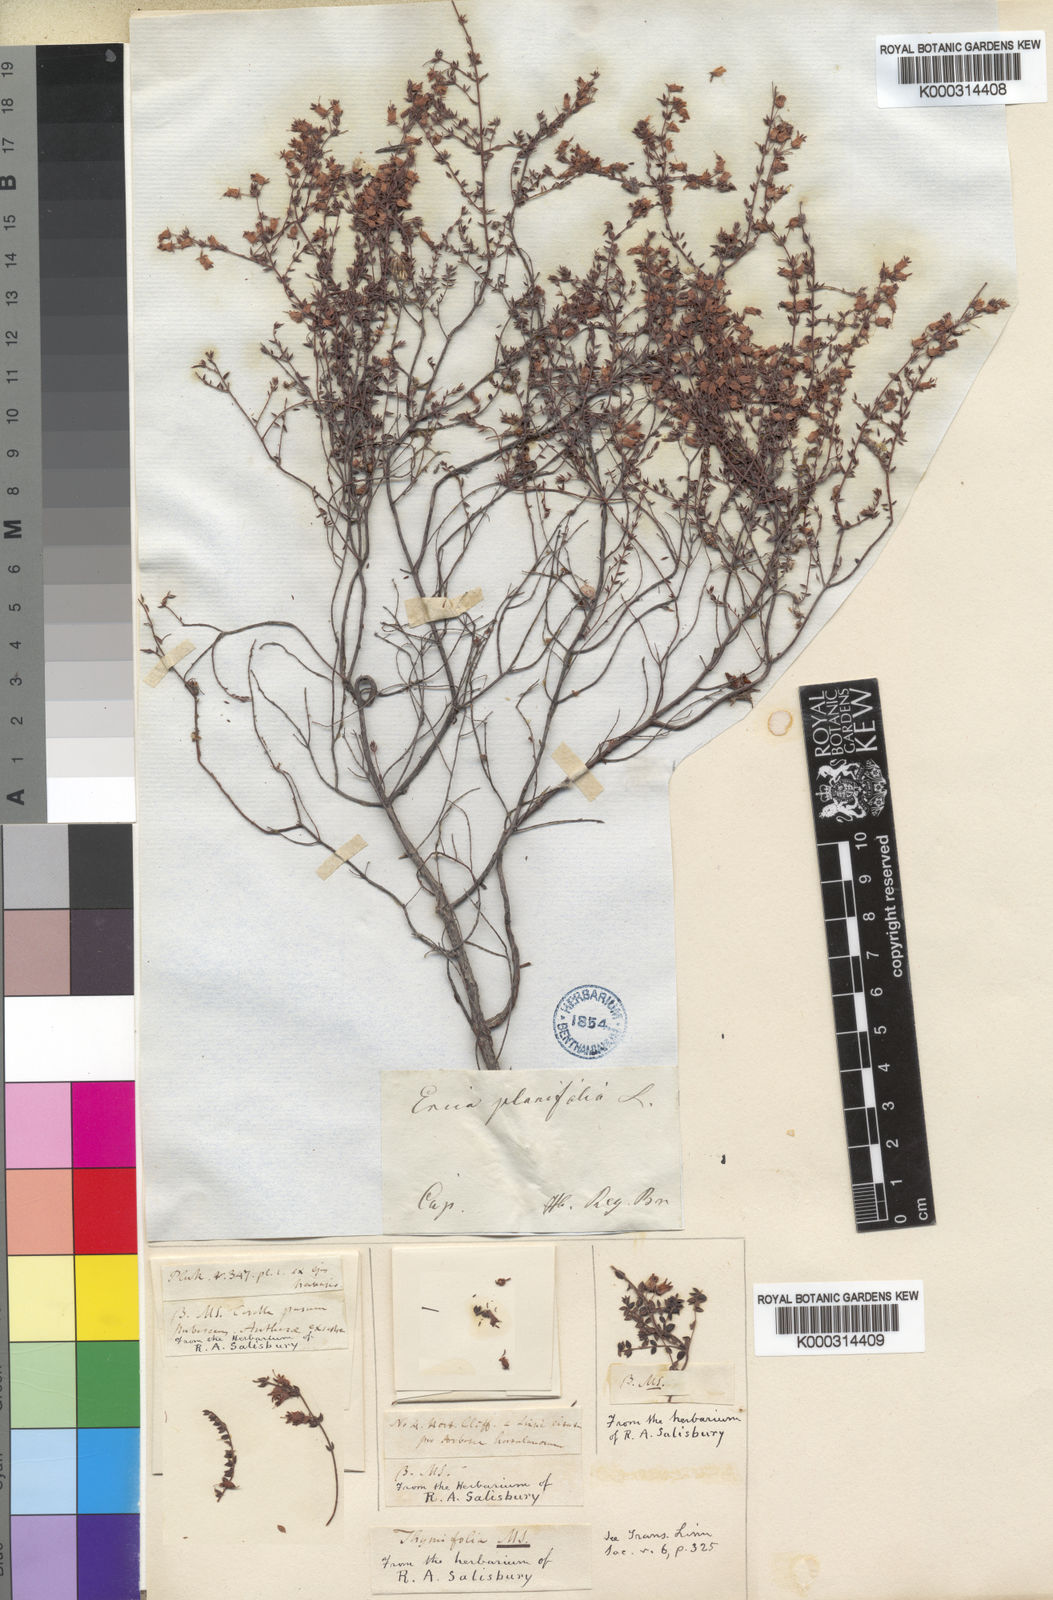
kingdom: Plantae
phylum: Tracheophyta
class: Magnoliopsida
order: Ericales
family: Ericaceae
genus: Erica
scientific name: Erica thimifolia
